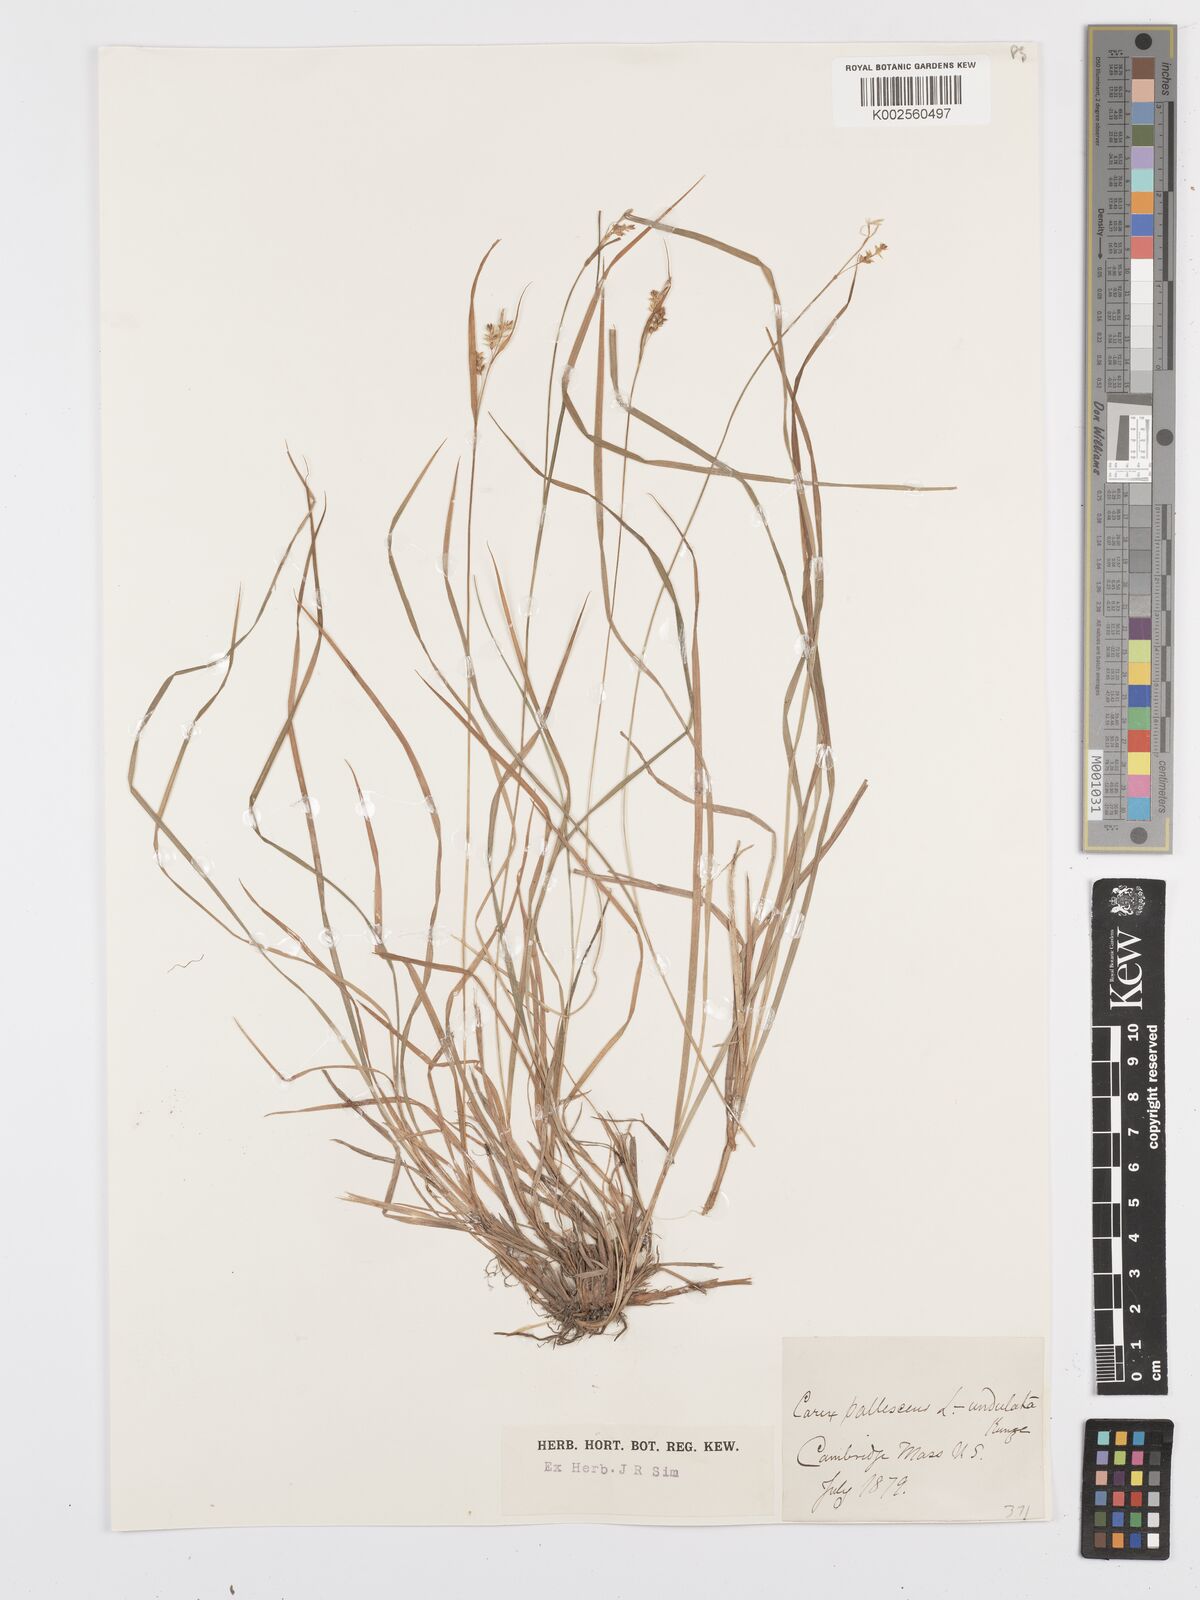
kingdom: Plantae
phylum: Tracheophyta
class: Liliopsida
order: Poales
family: Cyperaceae
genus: Carex
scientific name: Carex pallescens
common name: Pale sedge
